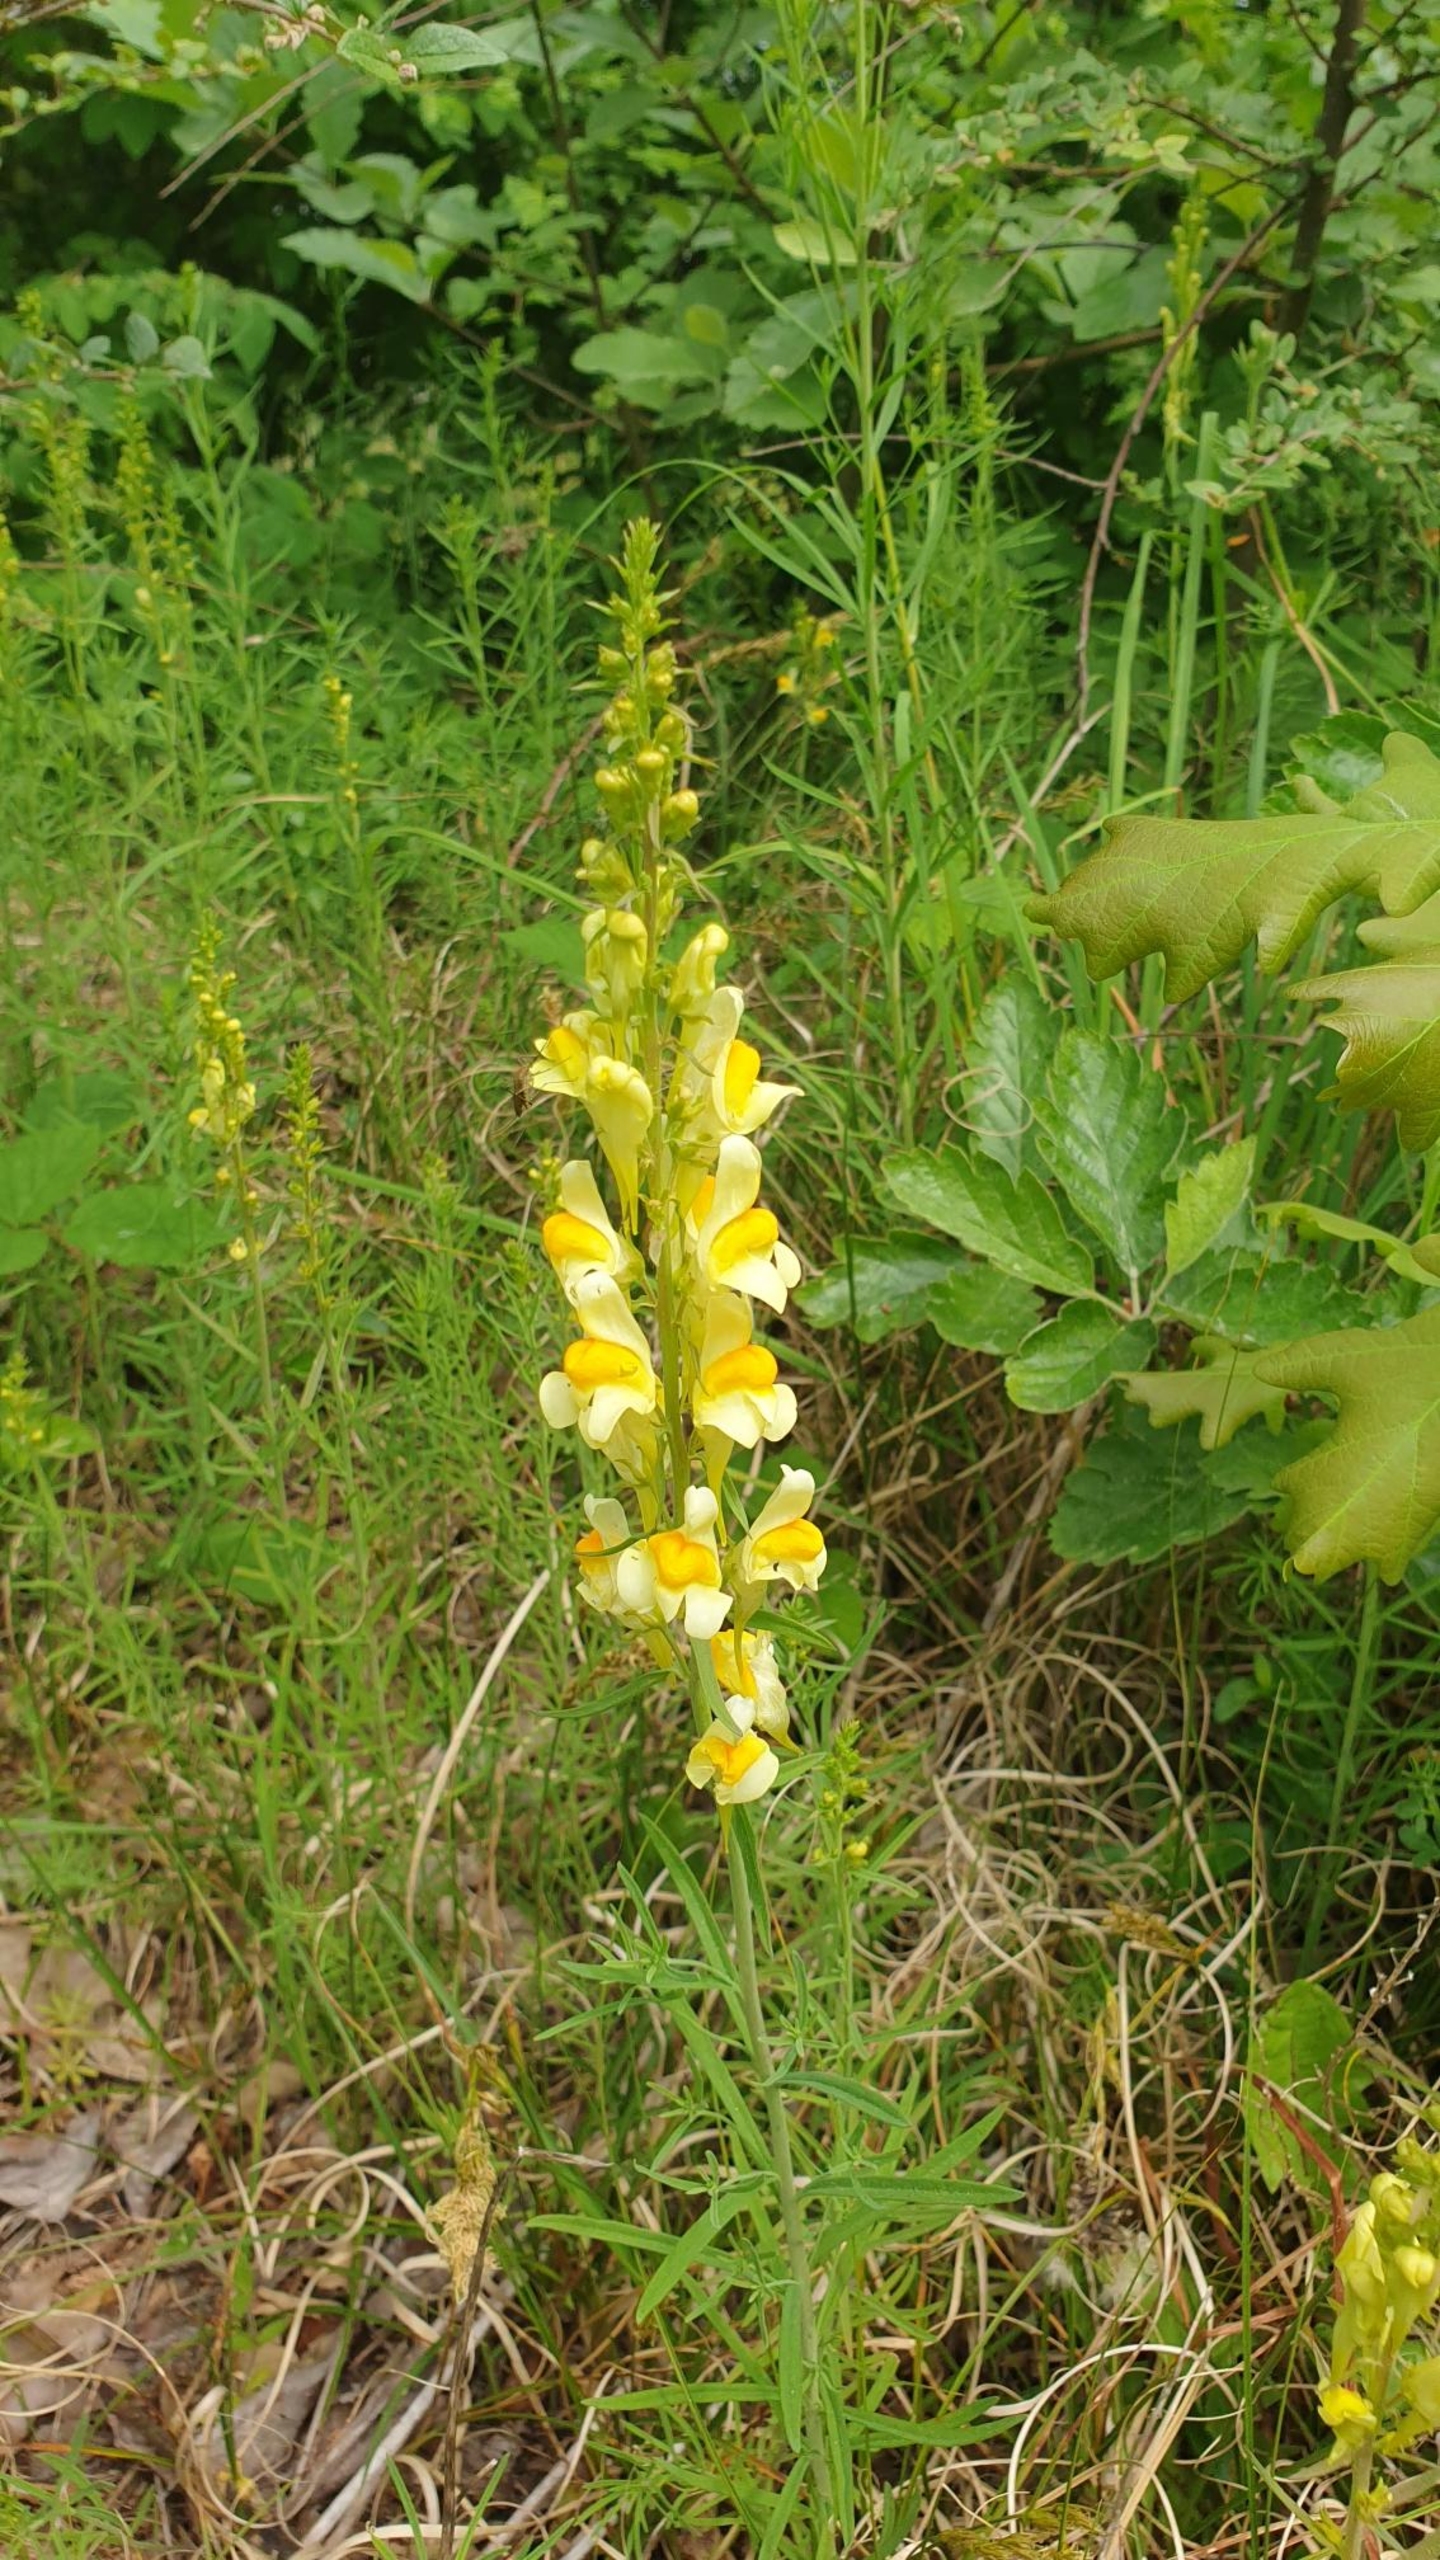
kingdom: Plantae
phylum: Tracheophyta
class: Magnoliopsida
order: Lamiales
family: Plantaginaceae
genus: Linaria
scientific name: Linaria vulgaris
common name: Almindelig torskemund
